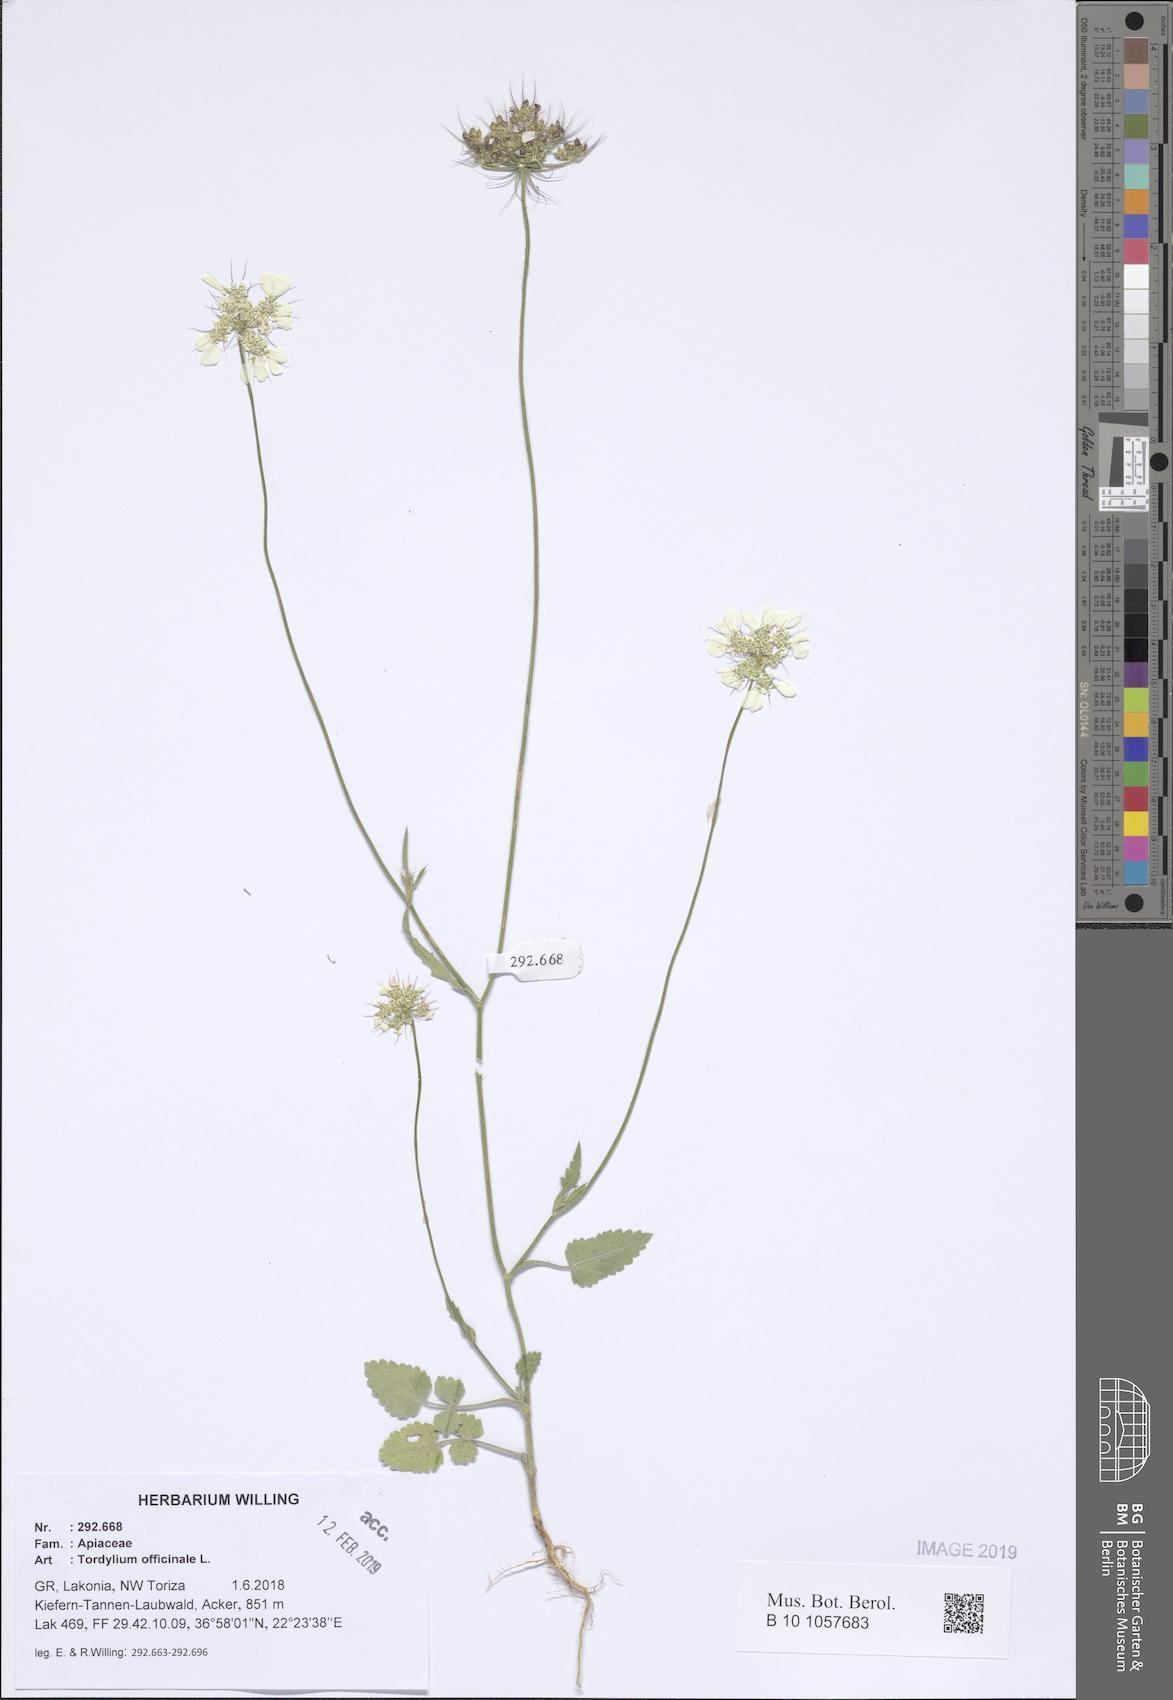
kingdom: Plantae
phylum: Tracheophyta
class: Magnoliopsida
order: Apiales
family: Apiaceae
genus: Tordylium
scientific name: Tordylium officinale
